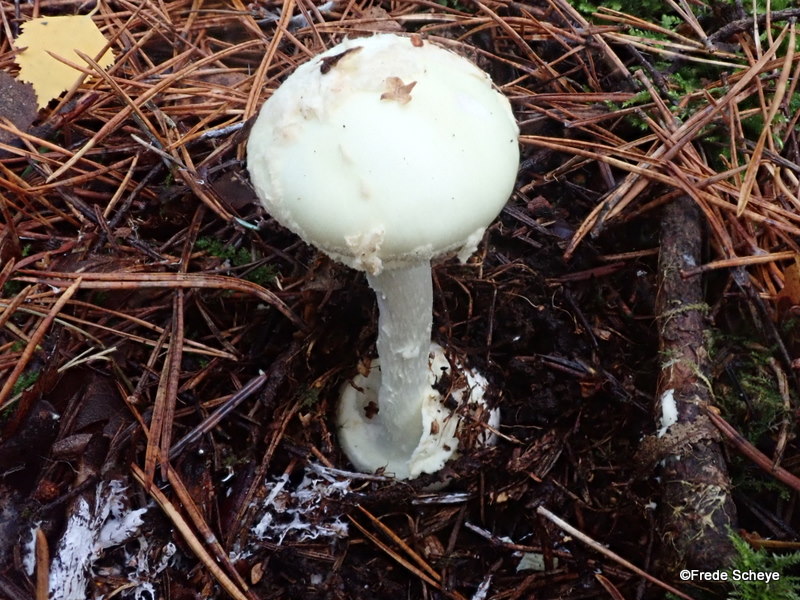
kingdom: Fungi
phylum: Basidiomycota
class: Agaricomycetes
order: Agaricales
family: Amanitaceae
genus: Amanita
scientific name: Amanita citrina
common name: kugleknoldet fluesvamp
